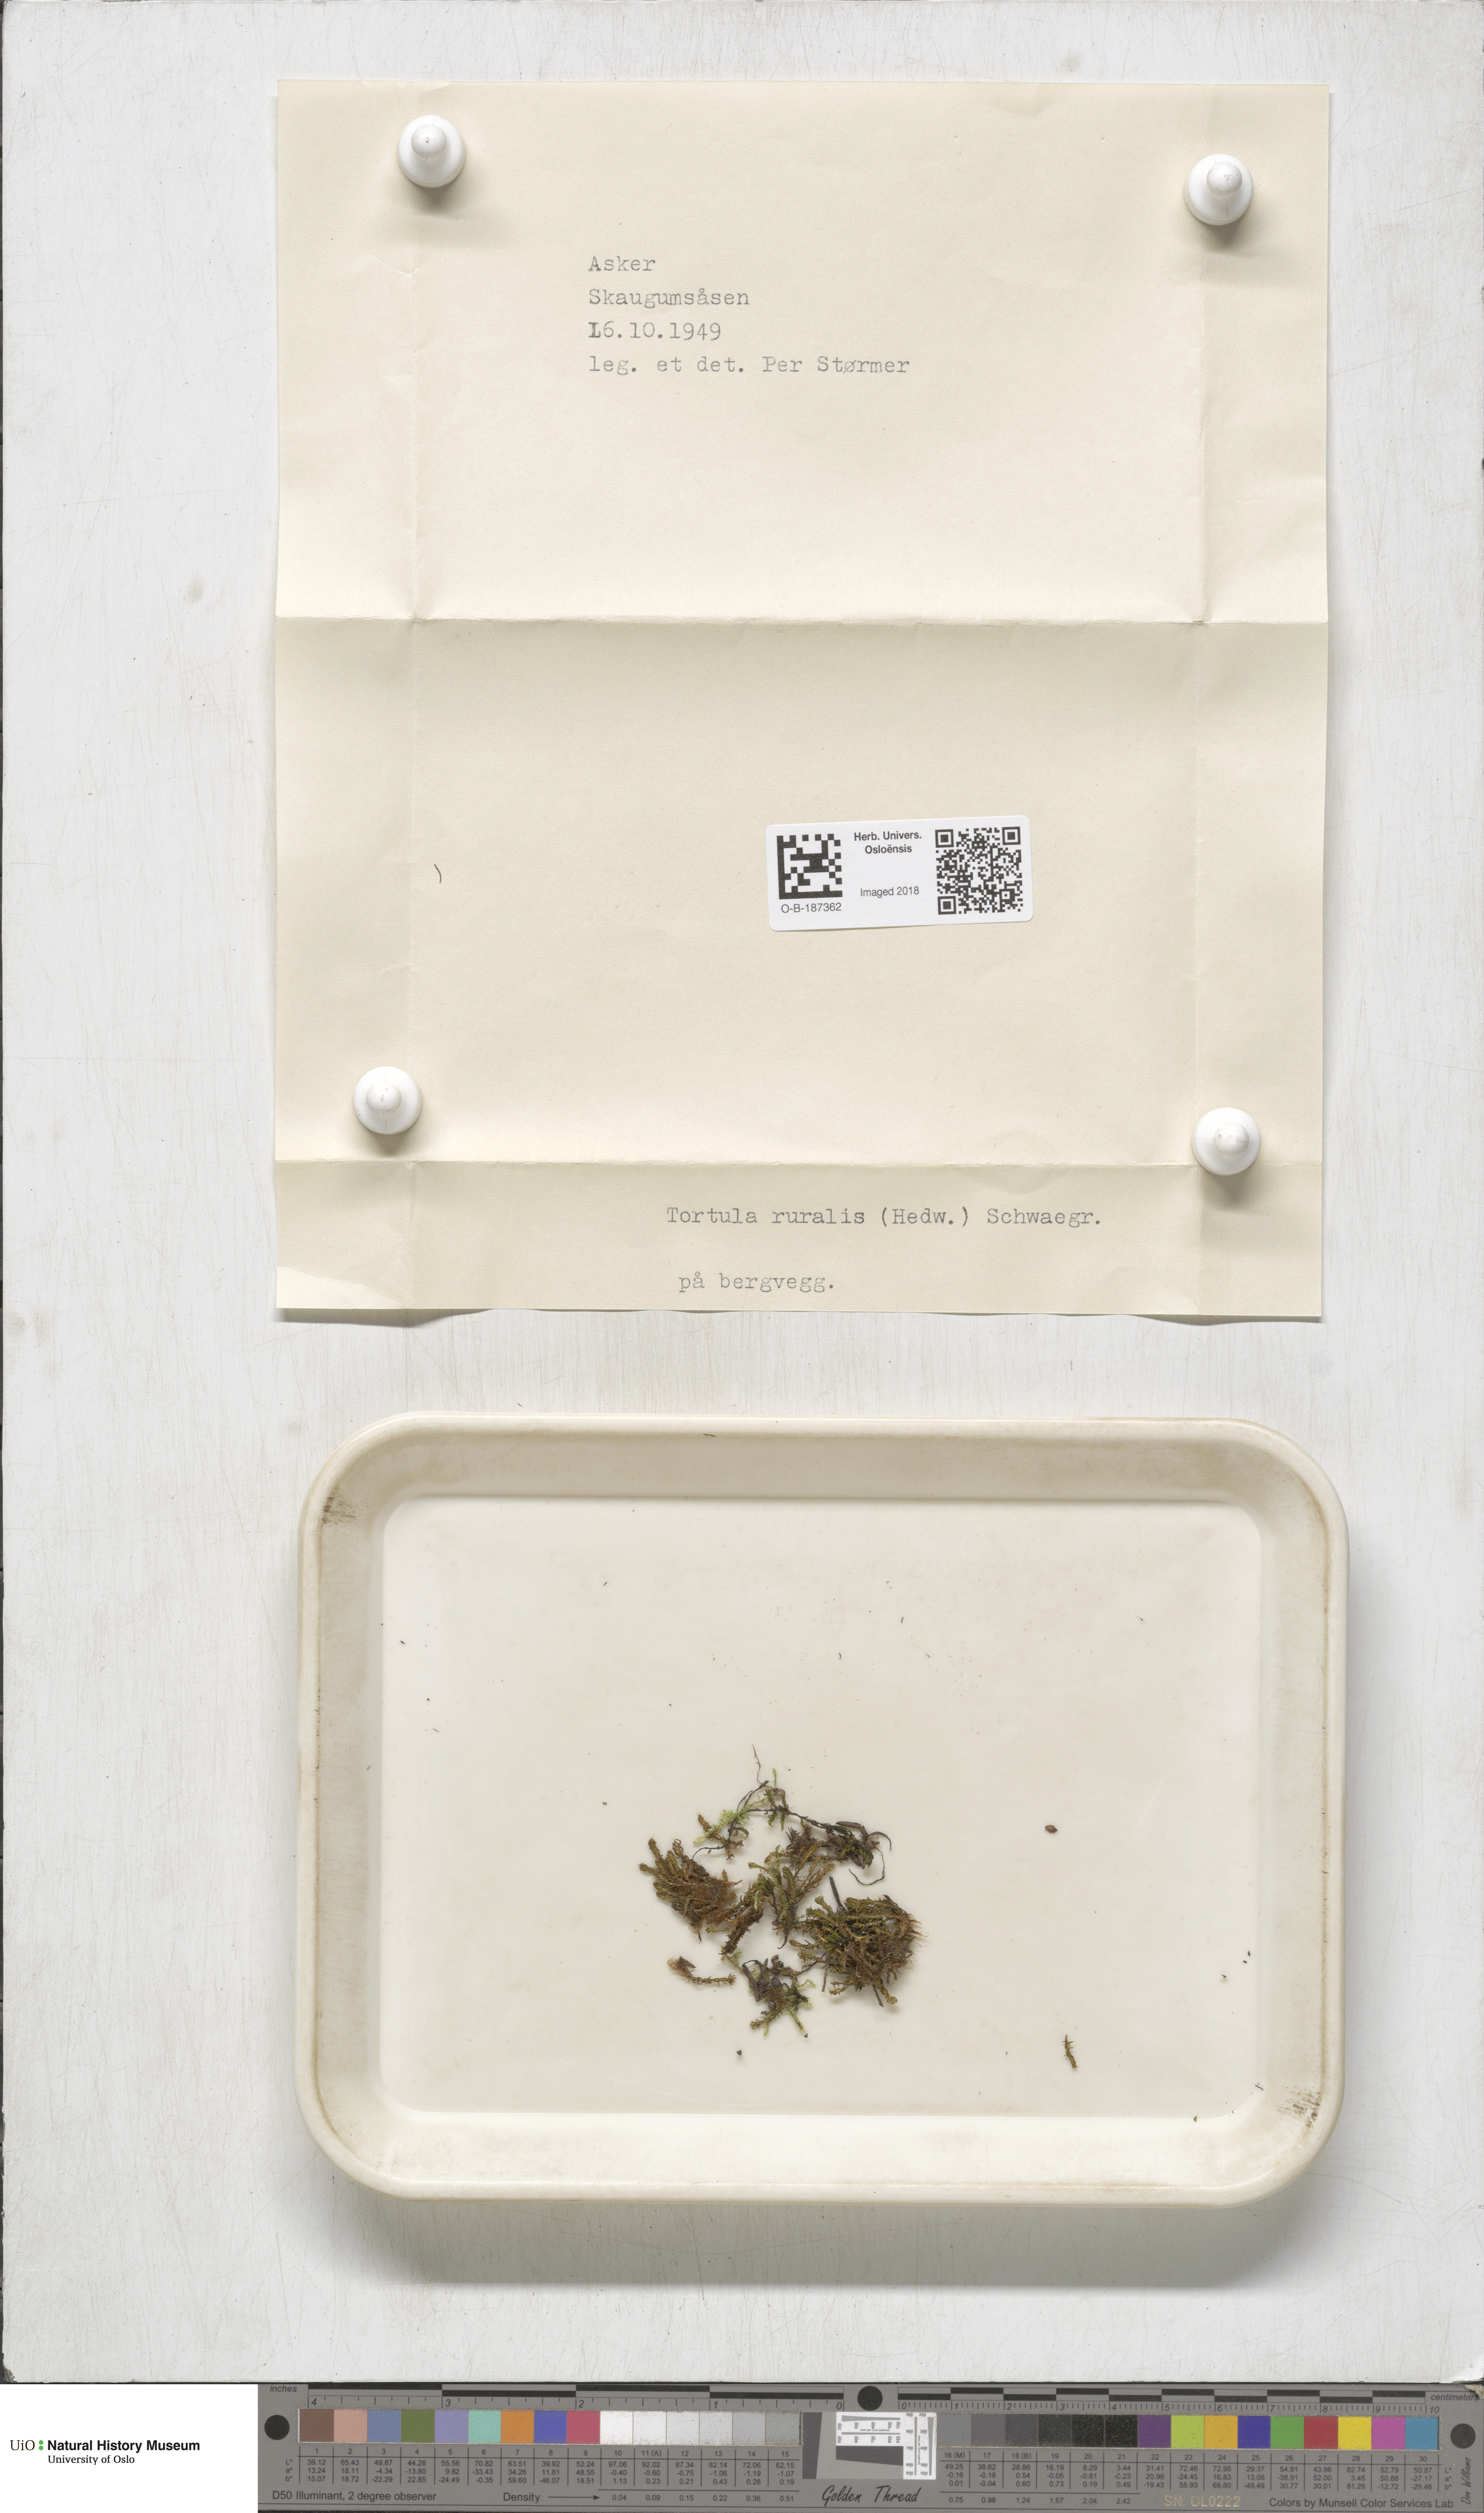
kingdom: Plantae
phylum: Bryophyta
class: Bryopsida
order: Pottiales
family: Pottiaceae
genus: Syntrichia
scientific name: Syntrichia ruralis
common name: Sidewalk screw moss
